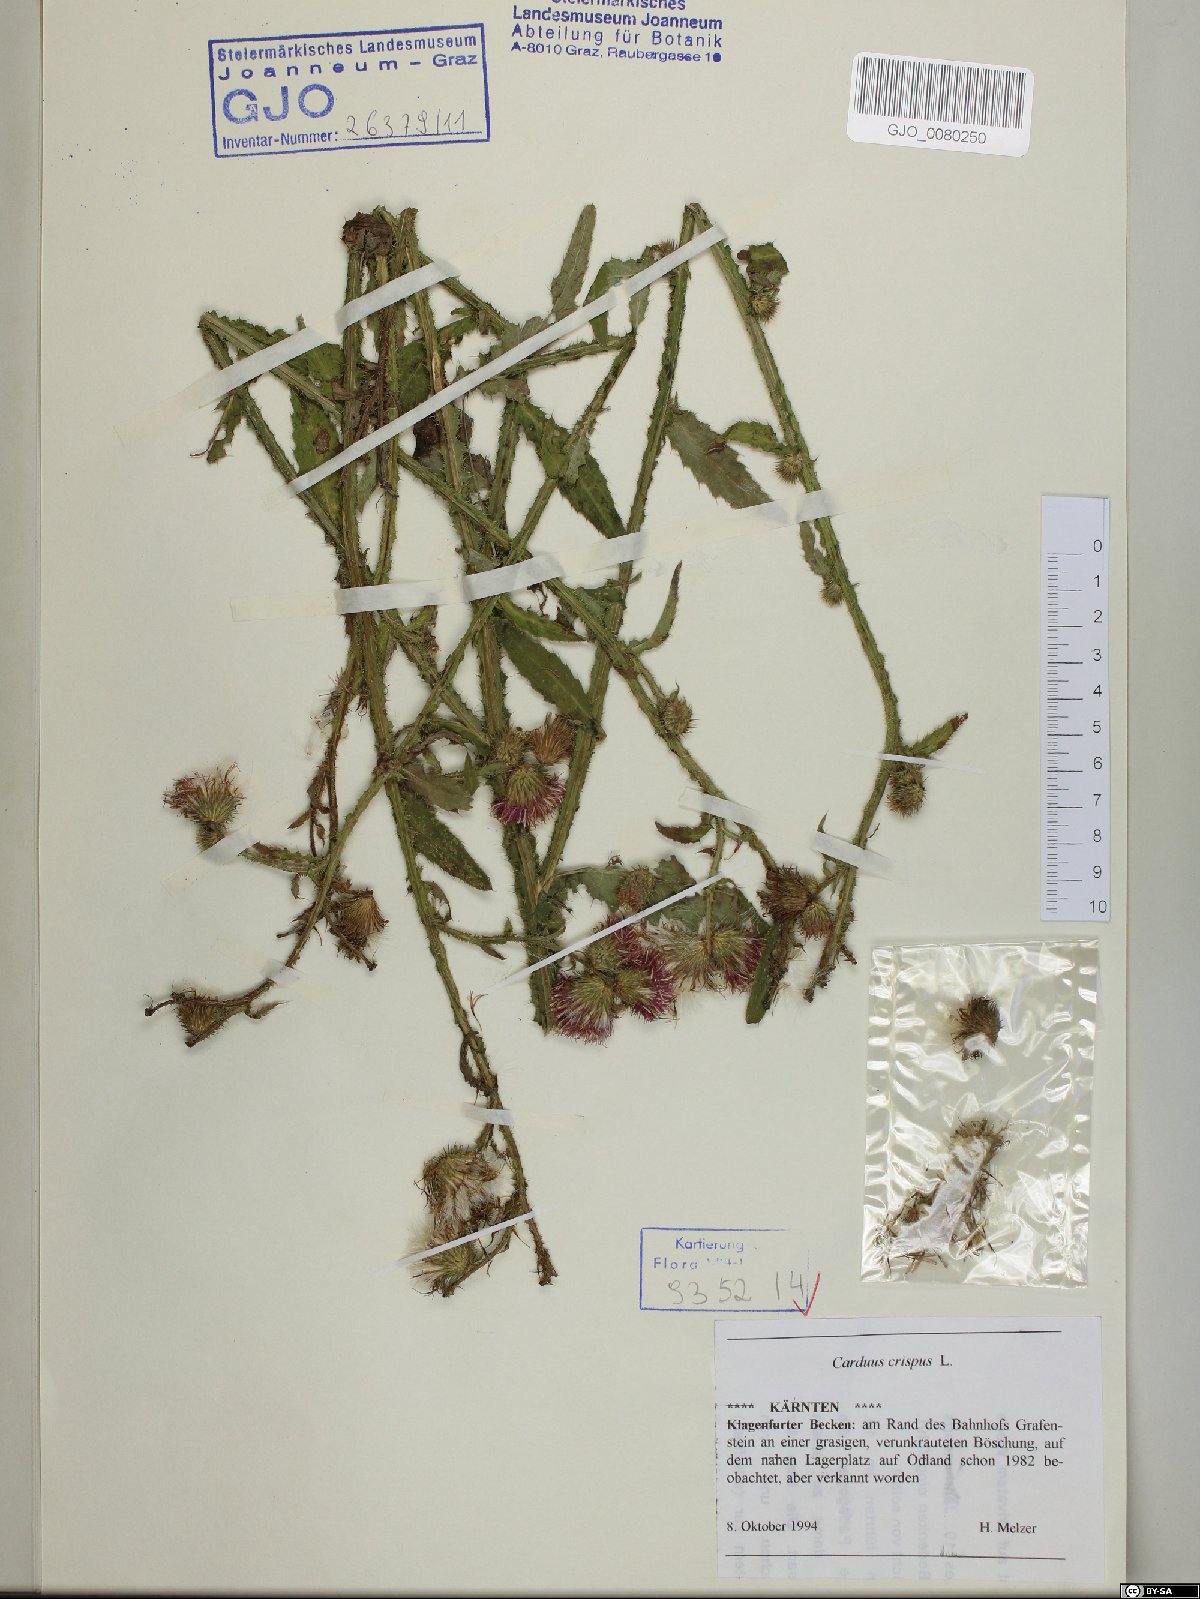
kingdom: Plantae
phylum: Tracheophyta
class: Magnoliopsida
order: Asterales
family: Asteraceae
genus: Carduus
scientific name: Carduus crispus
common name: Welted thistle
